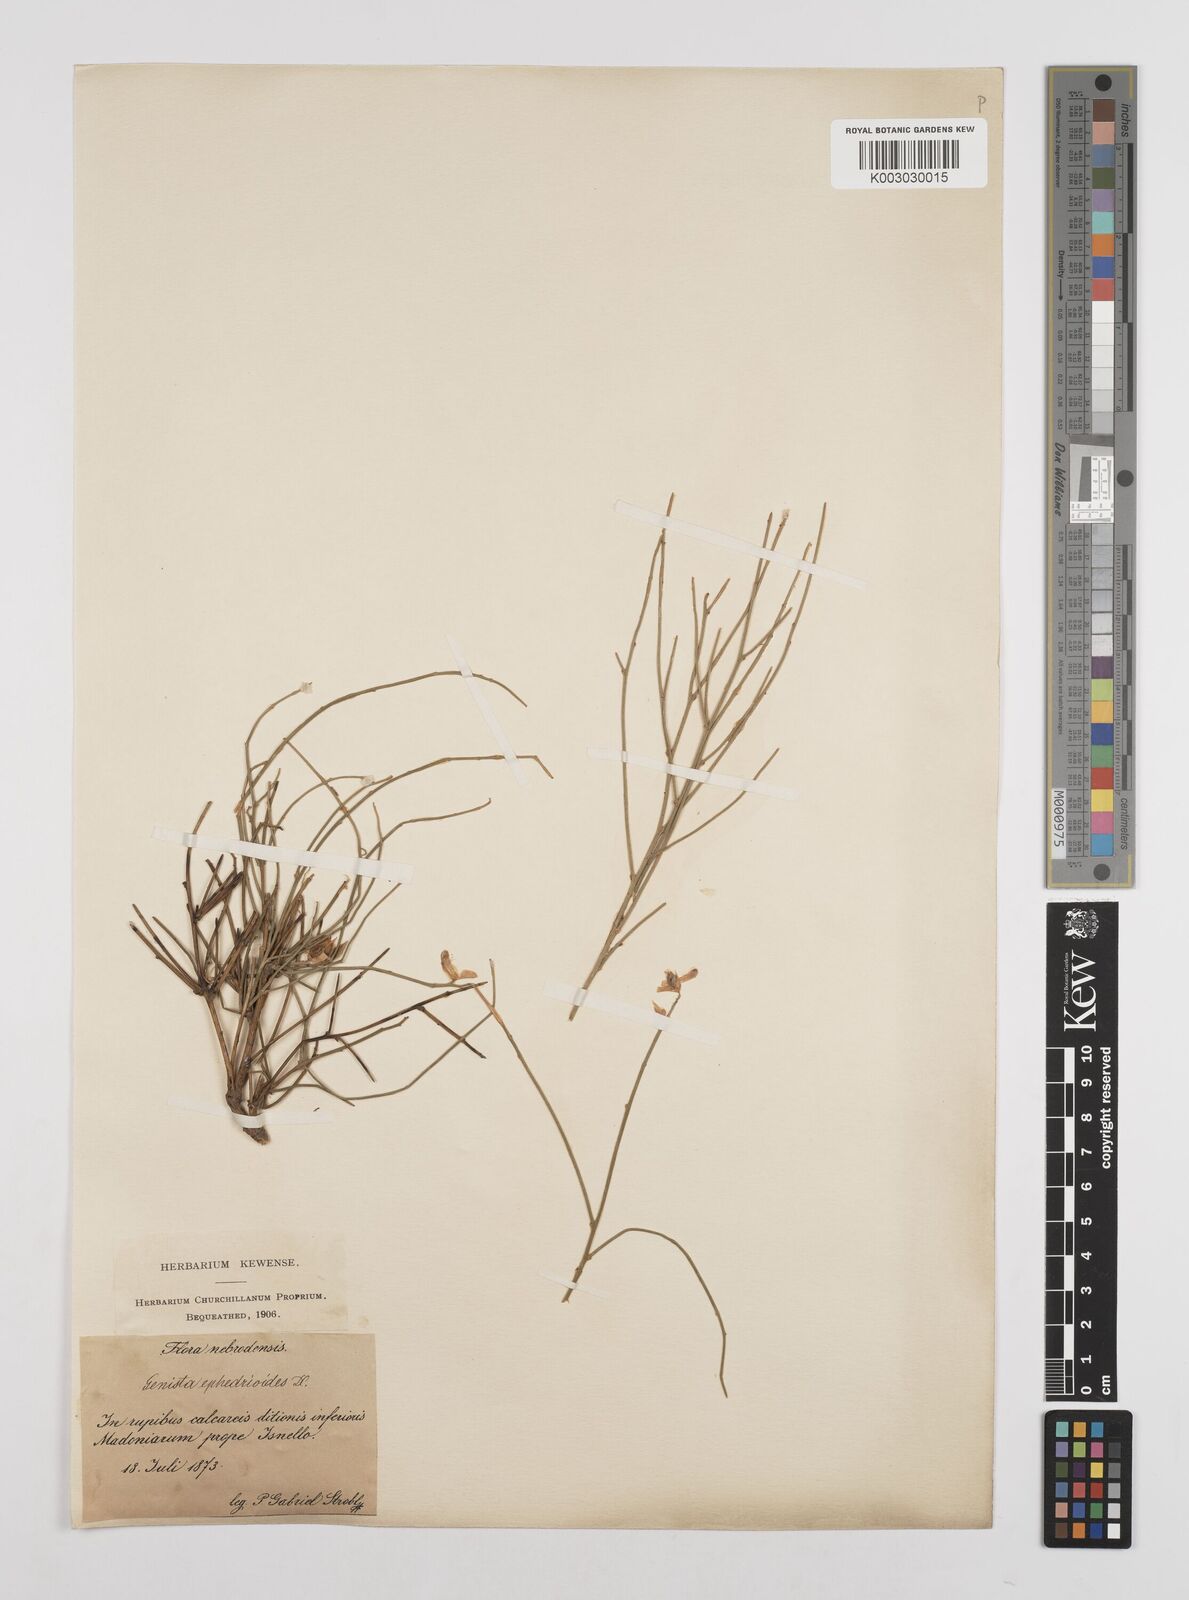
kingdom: Plantae
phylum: Tracheophyta
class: Magnoliopsida
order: Fabales
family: Fabaceae
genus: Genista
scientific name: Genista ephedroides
